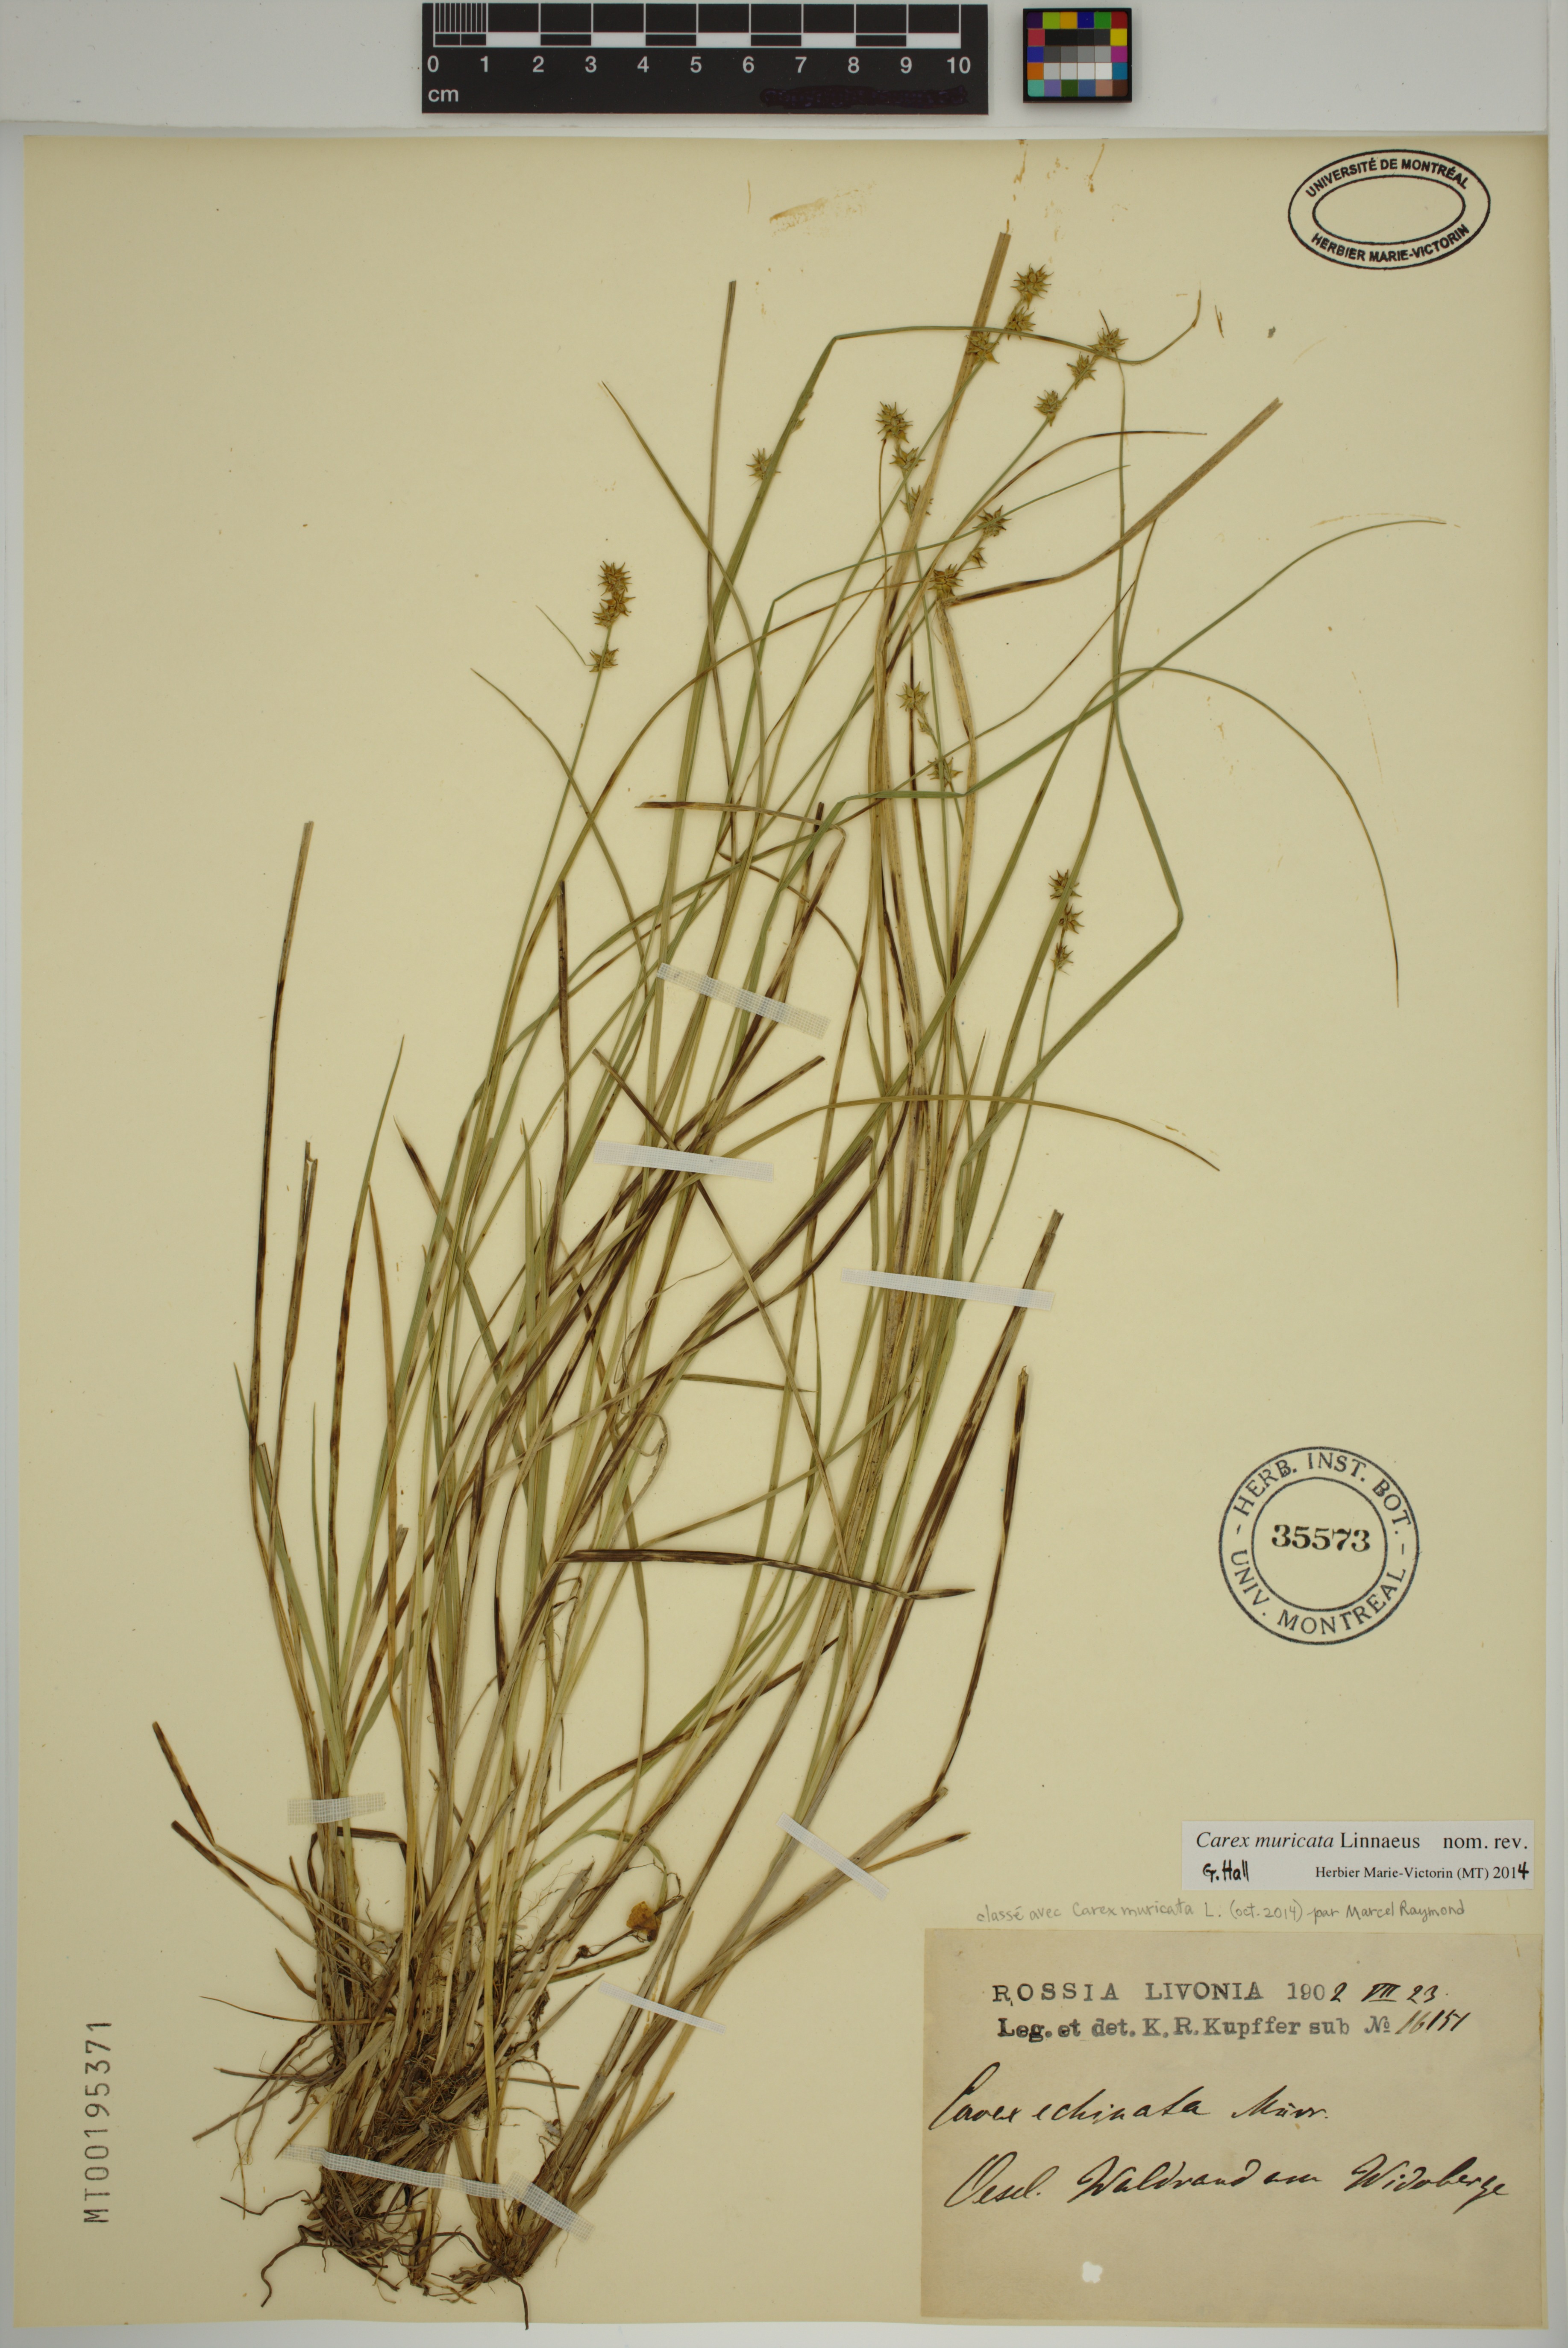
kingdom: Plantae
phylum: Tracheophyta
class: Liliopsida
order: Poales
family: Cyperaceae
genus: Carex
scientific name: Carex muricata
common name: Rough sedge
